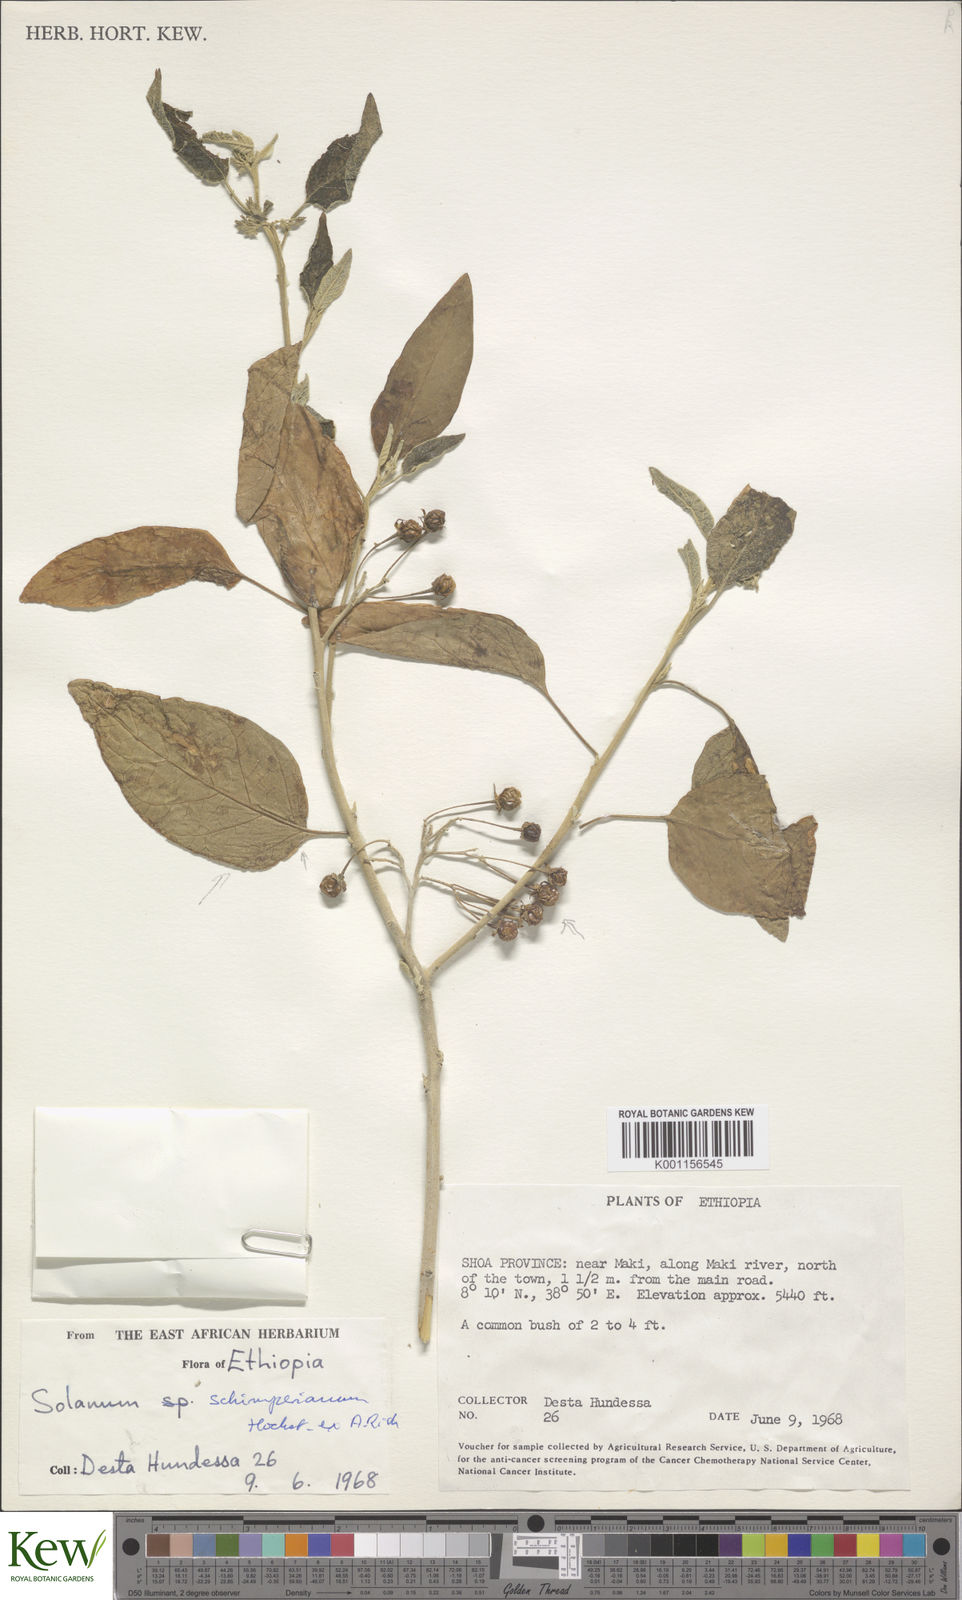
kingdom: Plantae
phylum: Tracheophyta
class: Magnoliopsida
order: Solanales
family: Solanaceae
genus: Solanum
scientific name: Solanum
